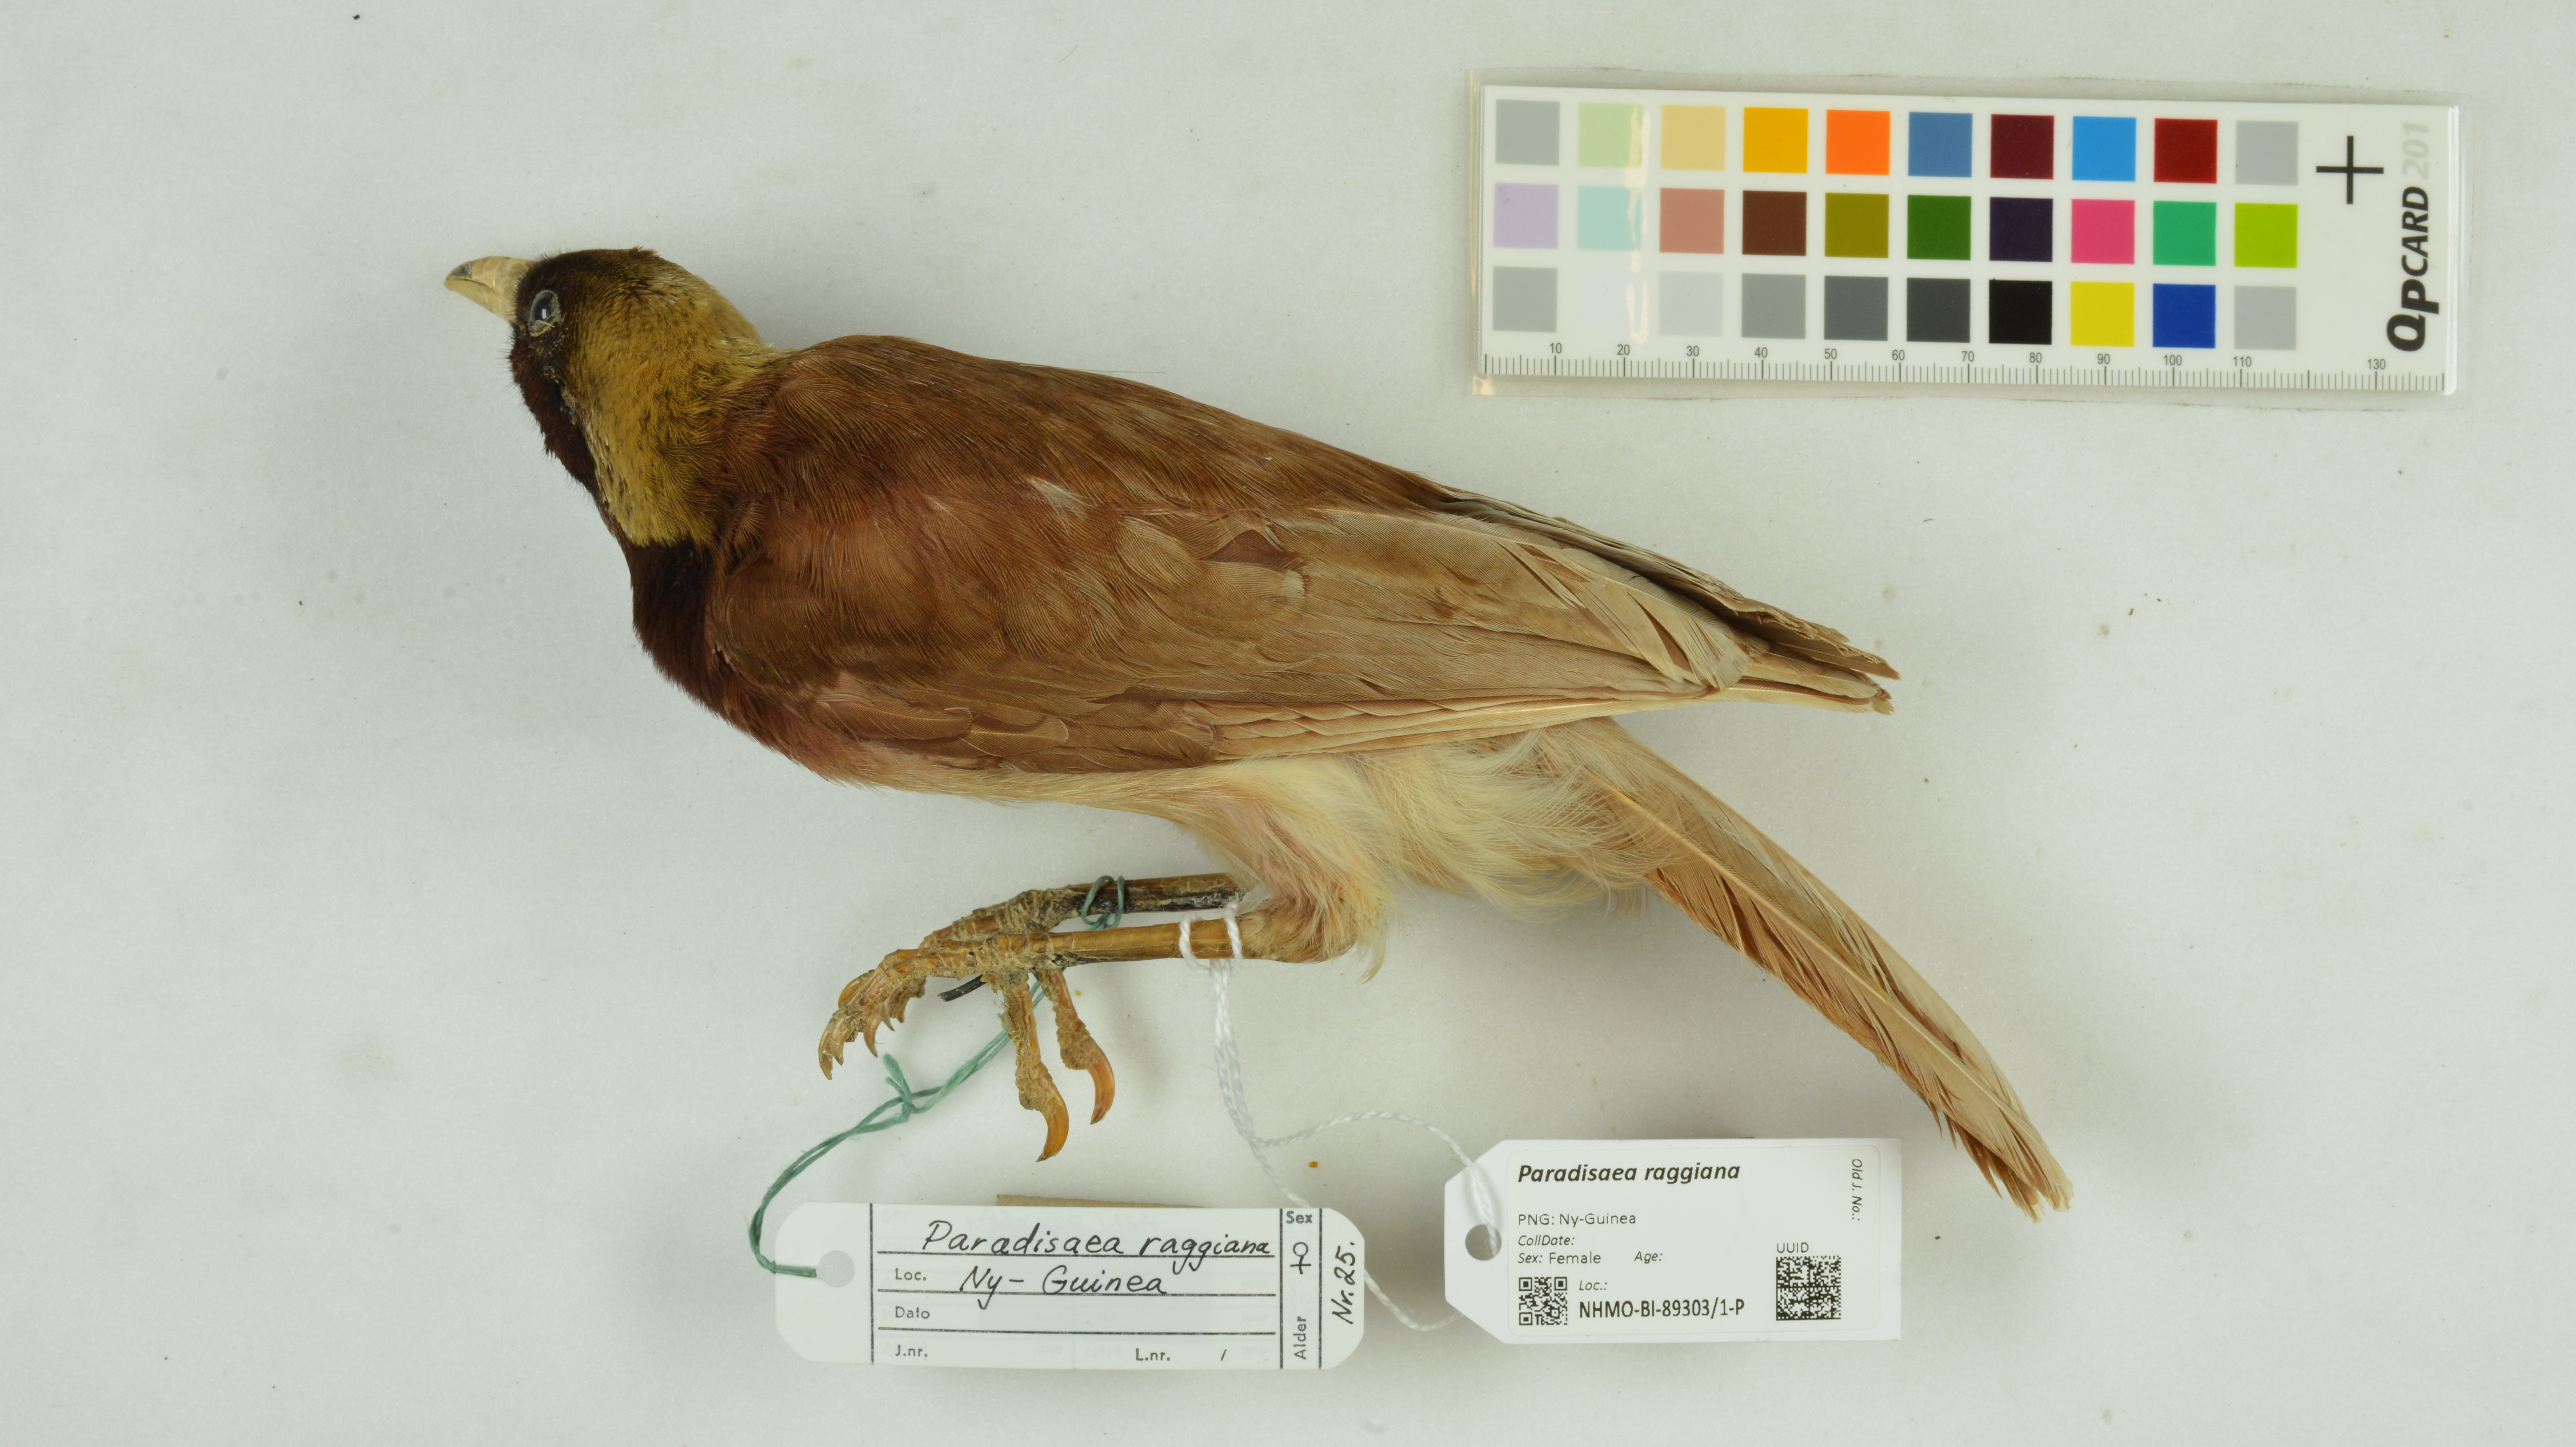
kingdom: Animalia
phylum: Chordata
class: Aves
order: Passeriformes
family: Paradisaeidae
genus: Paradisaea
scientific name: Paradisaea raggiana
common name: Raggiana bird-of-paradise
